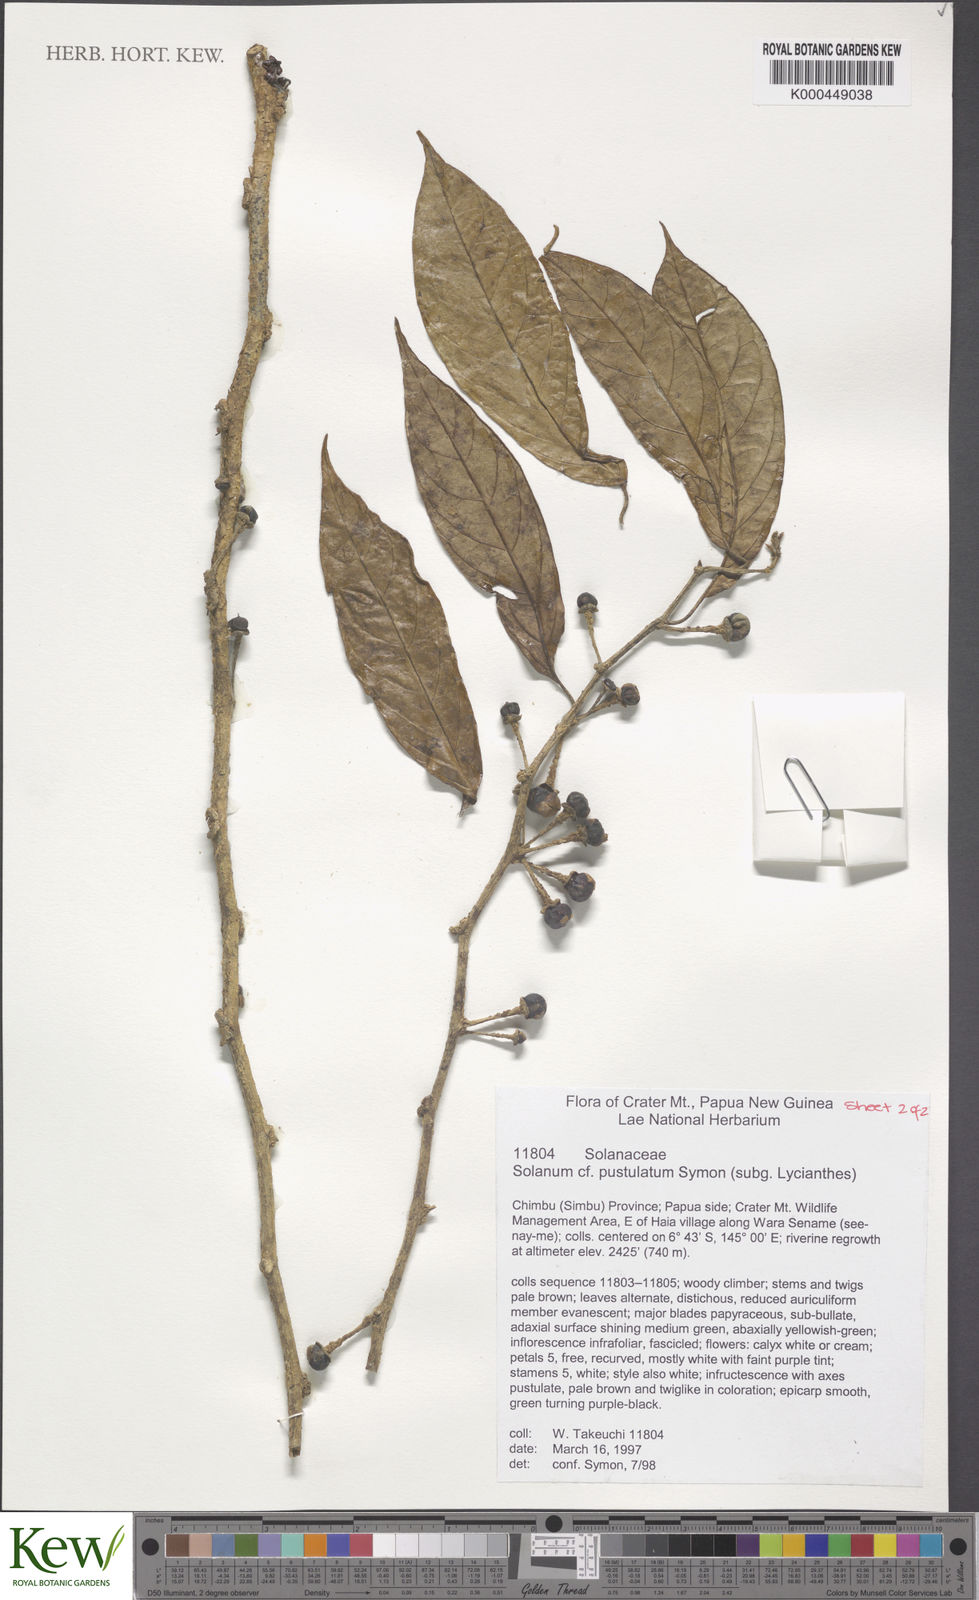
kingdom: Plantae
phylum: Tracheophyta
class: Magnoliopsida
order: Solanales
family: Solanaceae
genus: Lycianthes
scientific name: Lycianthes rostellata
